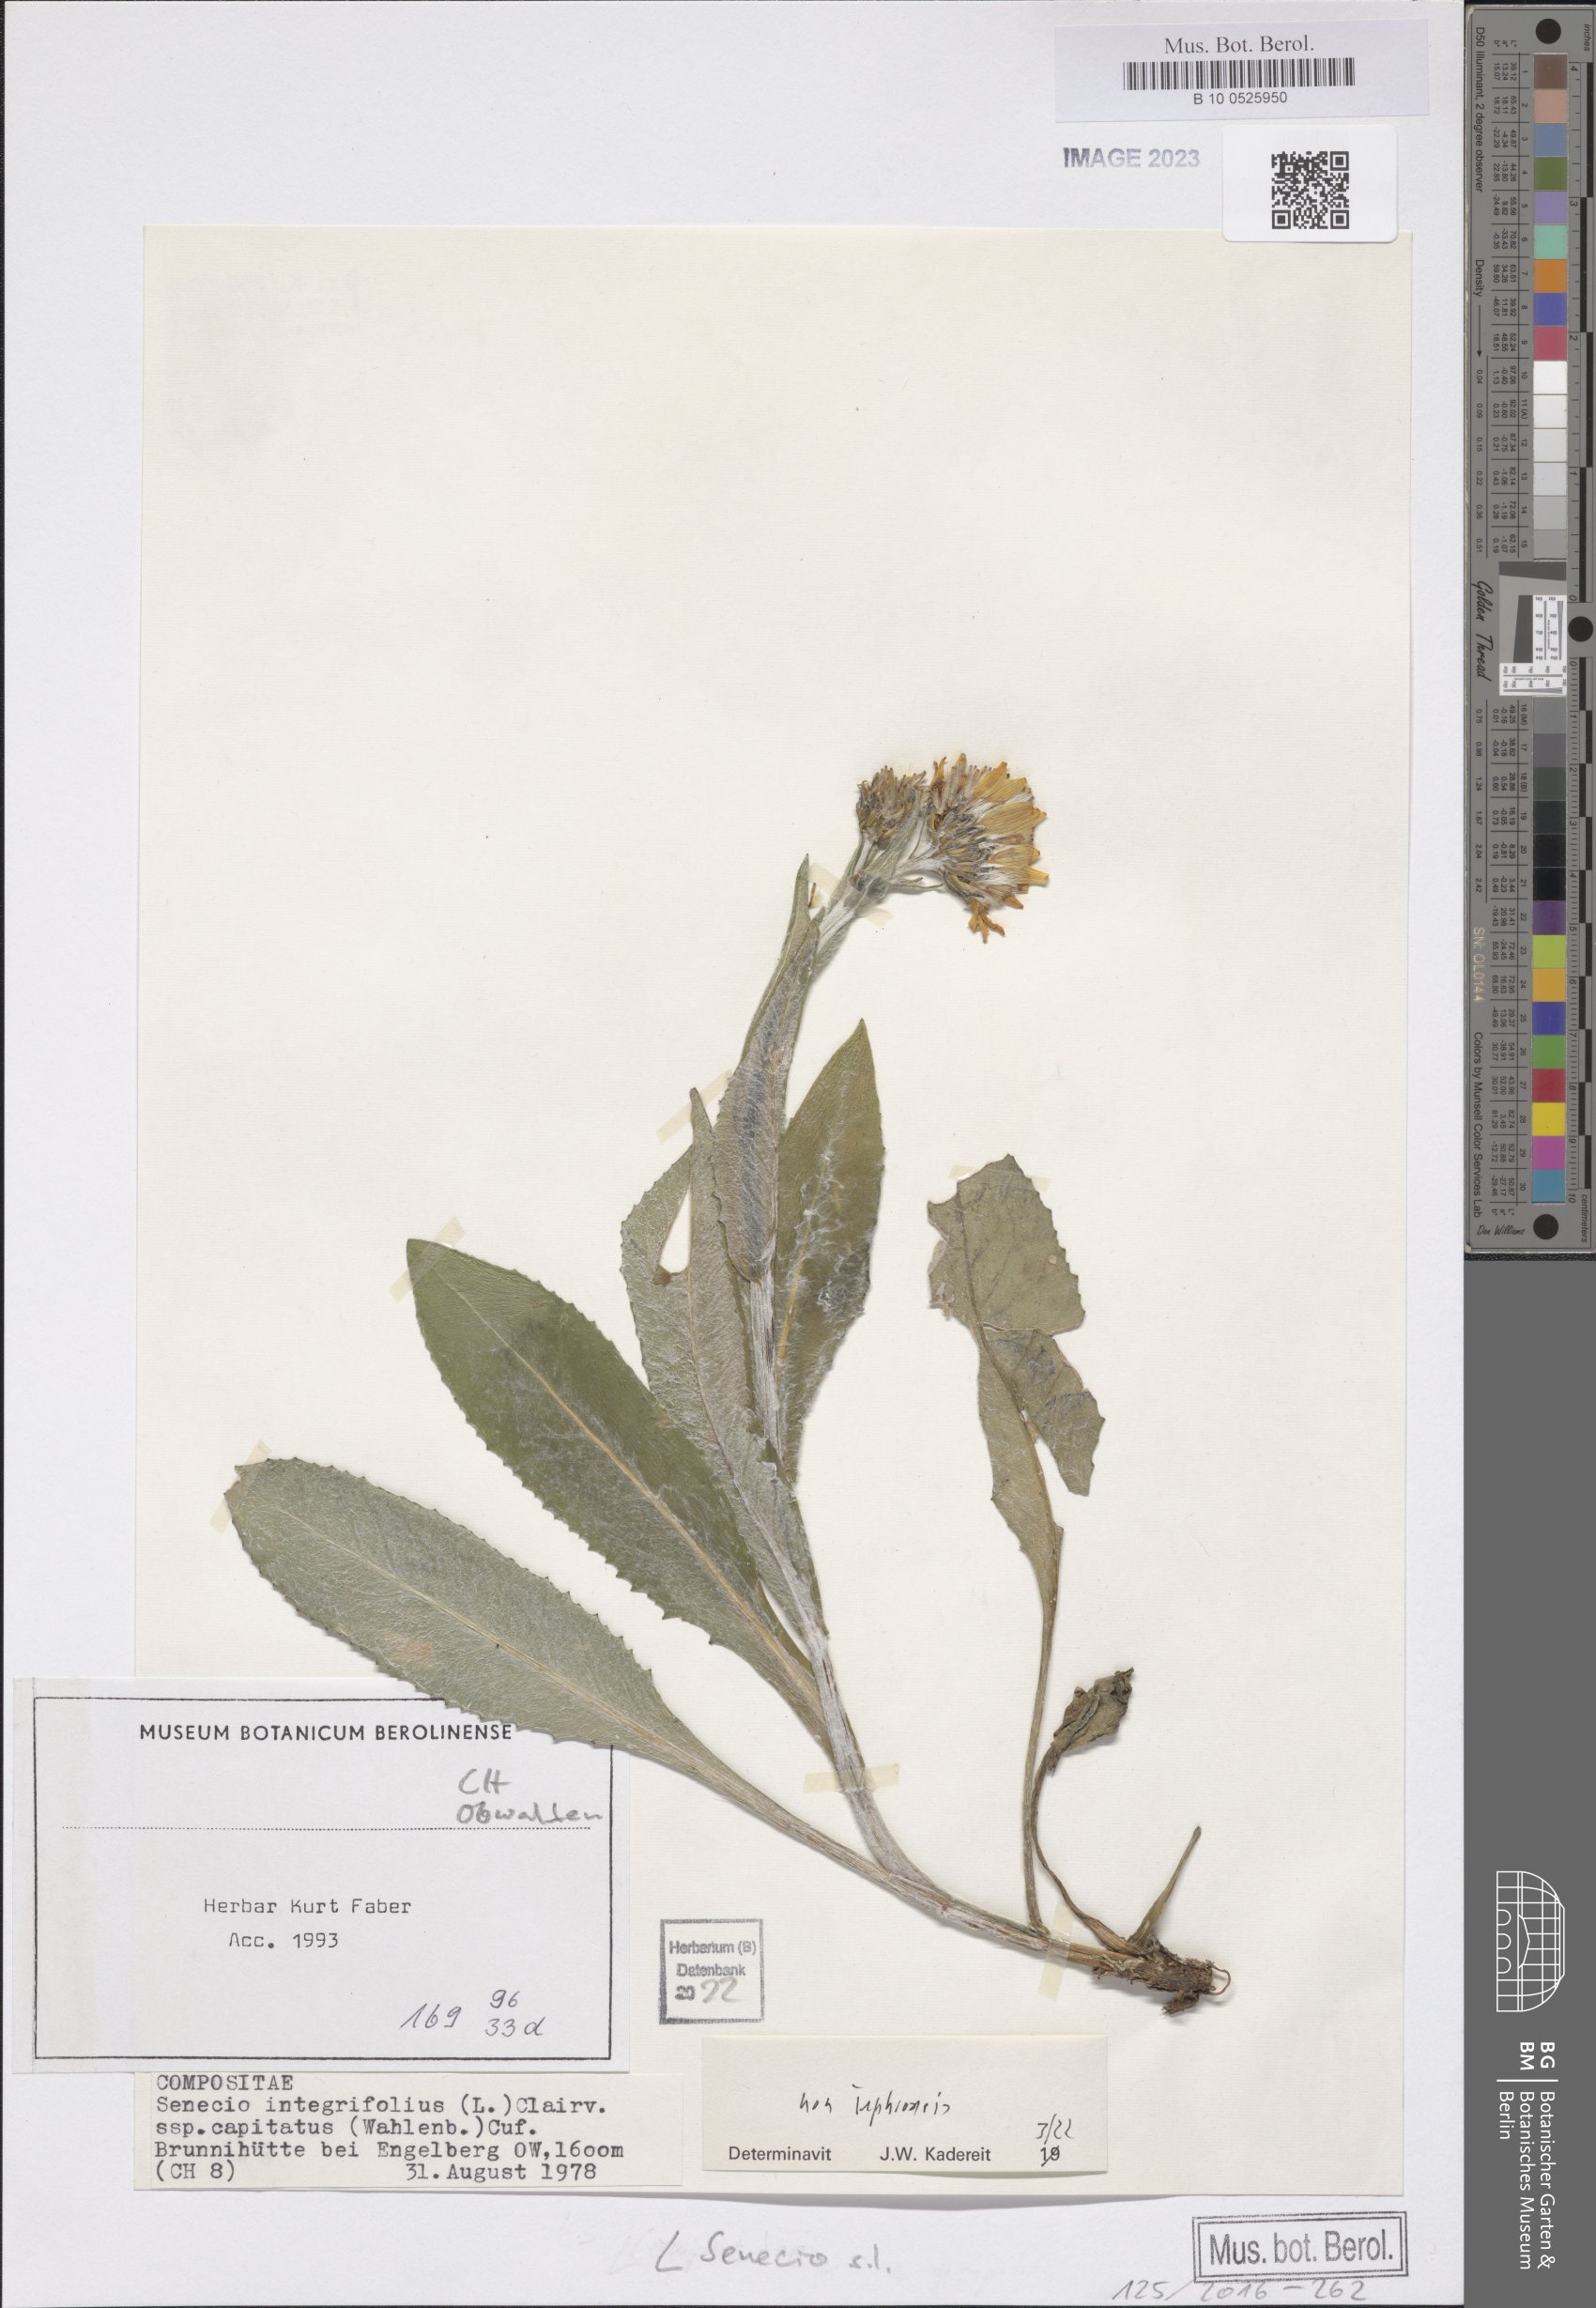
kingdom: Plantae
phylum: Tracheophyta
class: Magnoliopsida
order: Asterales
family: Asteraceae
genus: Senecio
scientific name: Senecio
